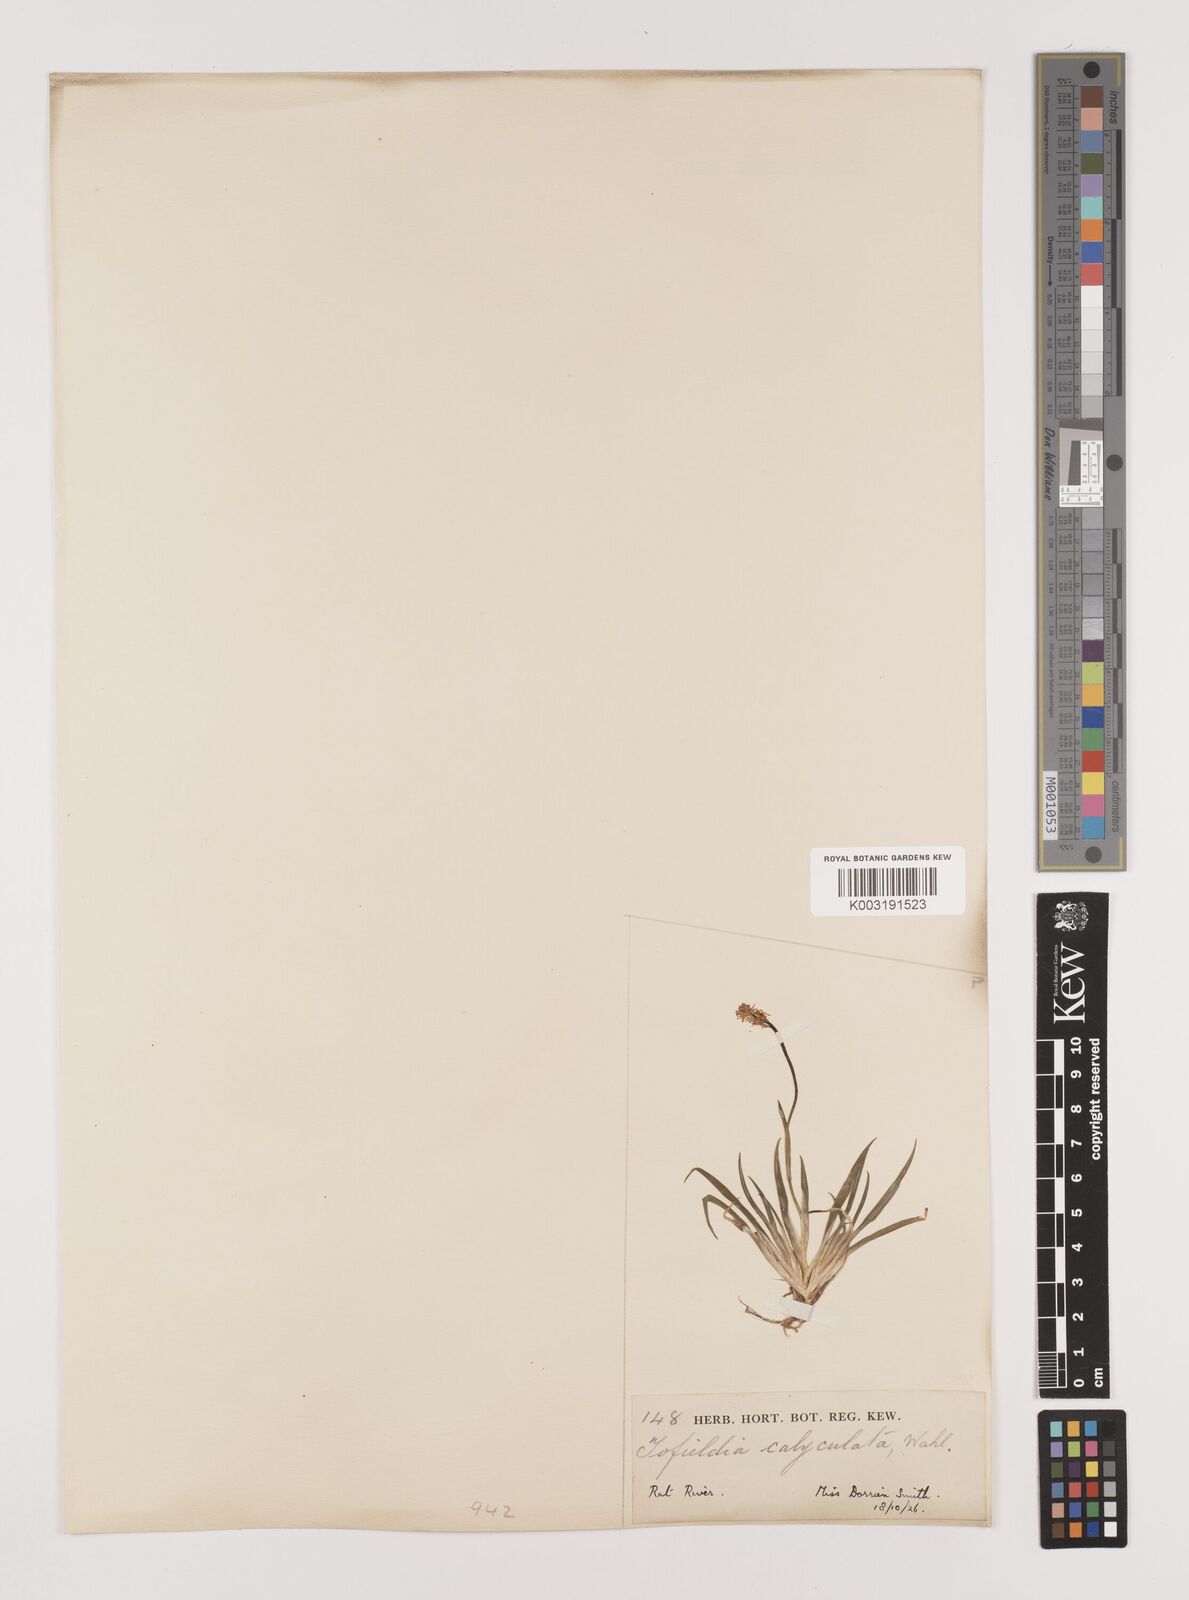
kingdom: Plantae
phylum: Tracheophyta
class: Liliopsida
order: Alismatales
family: Tofieldiaceae
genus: Triantha
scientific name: Triantha glutinosa
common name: Glutinous tofieldia
